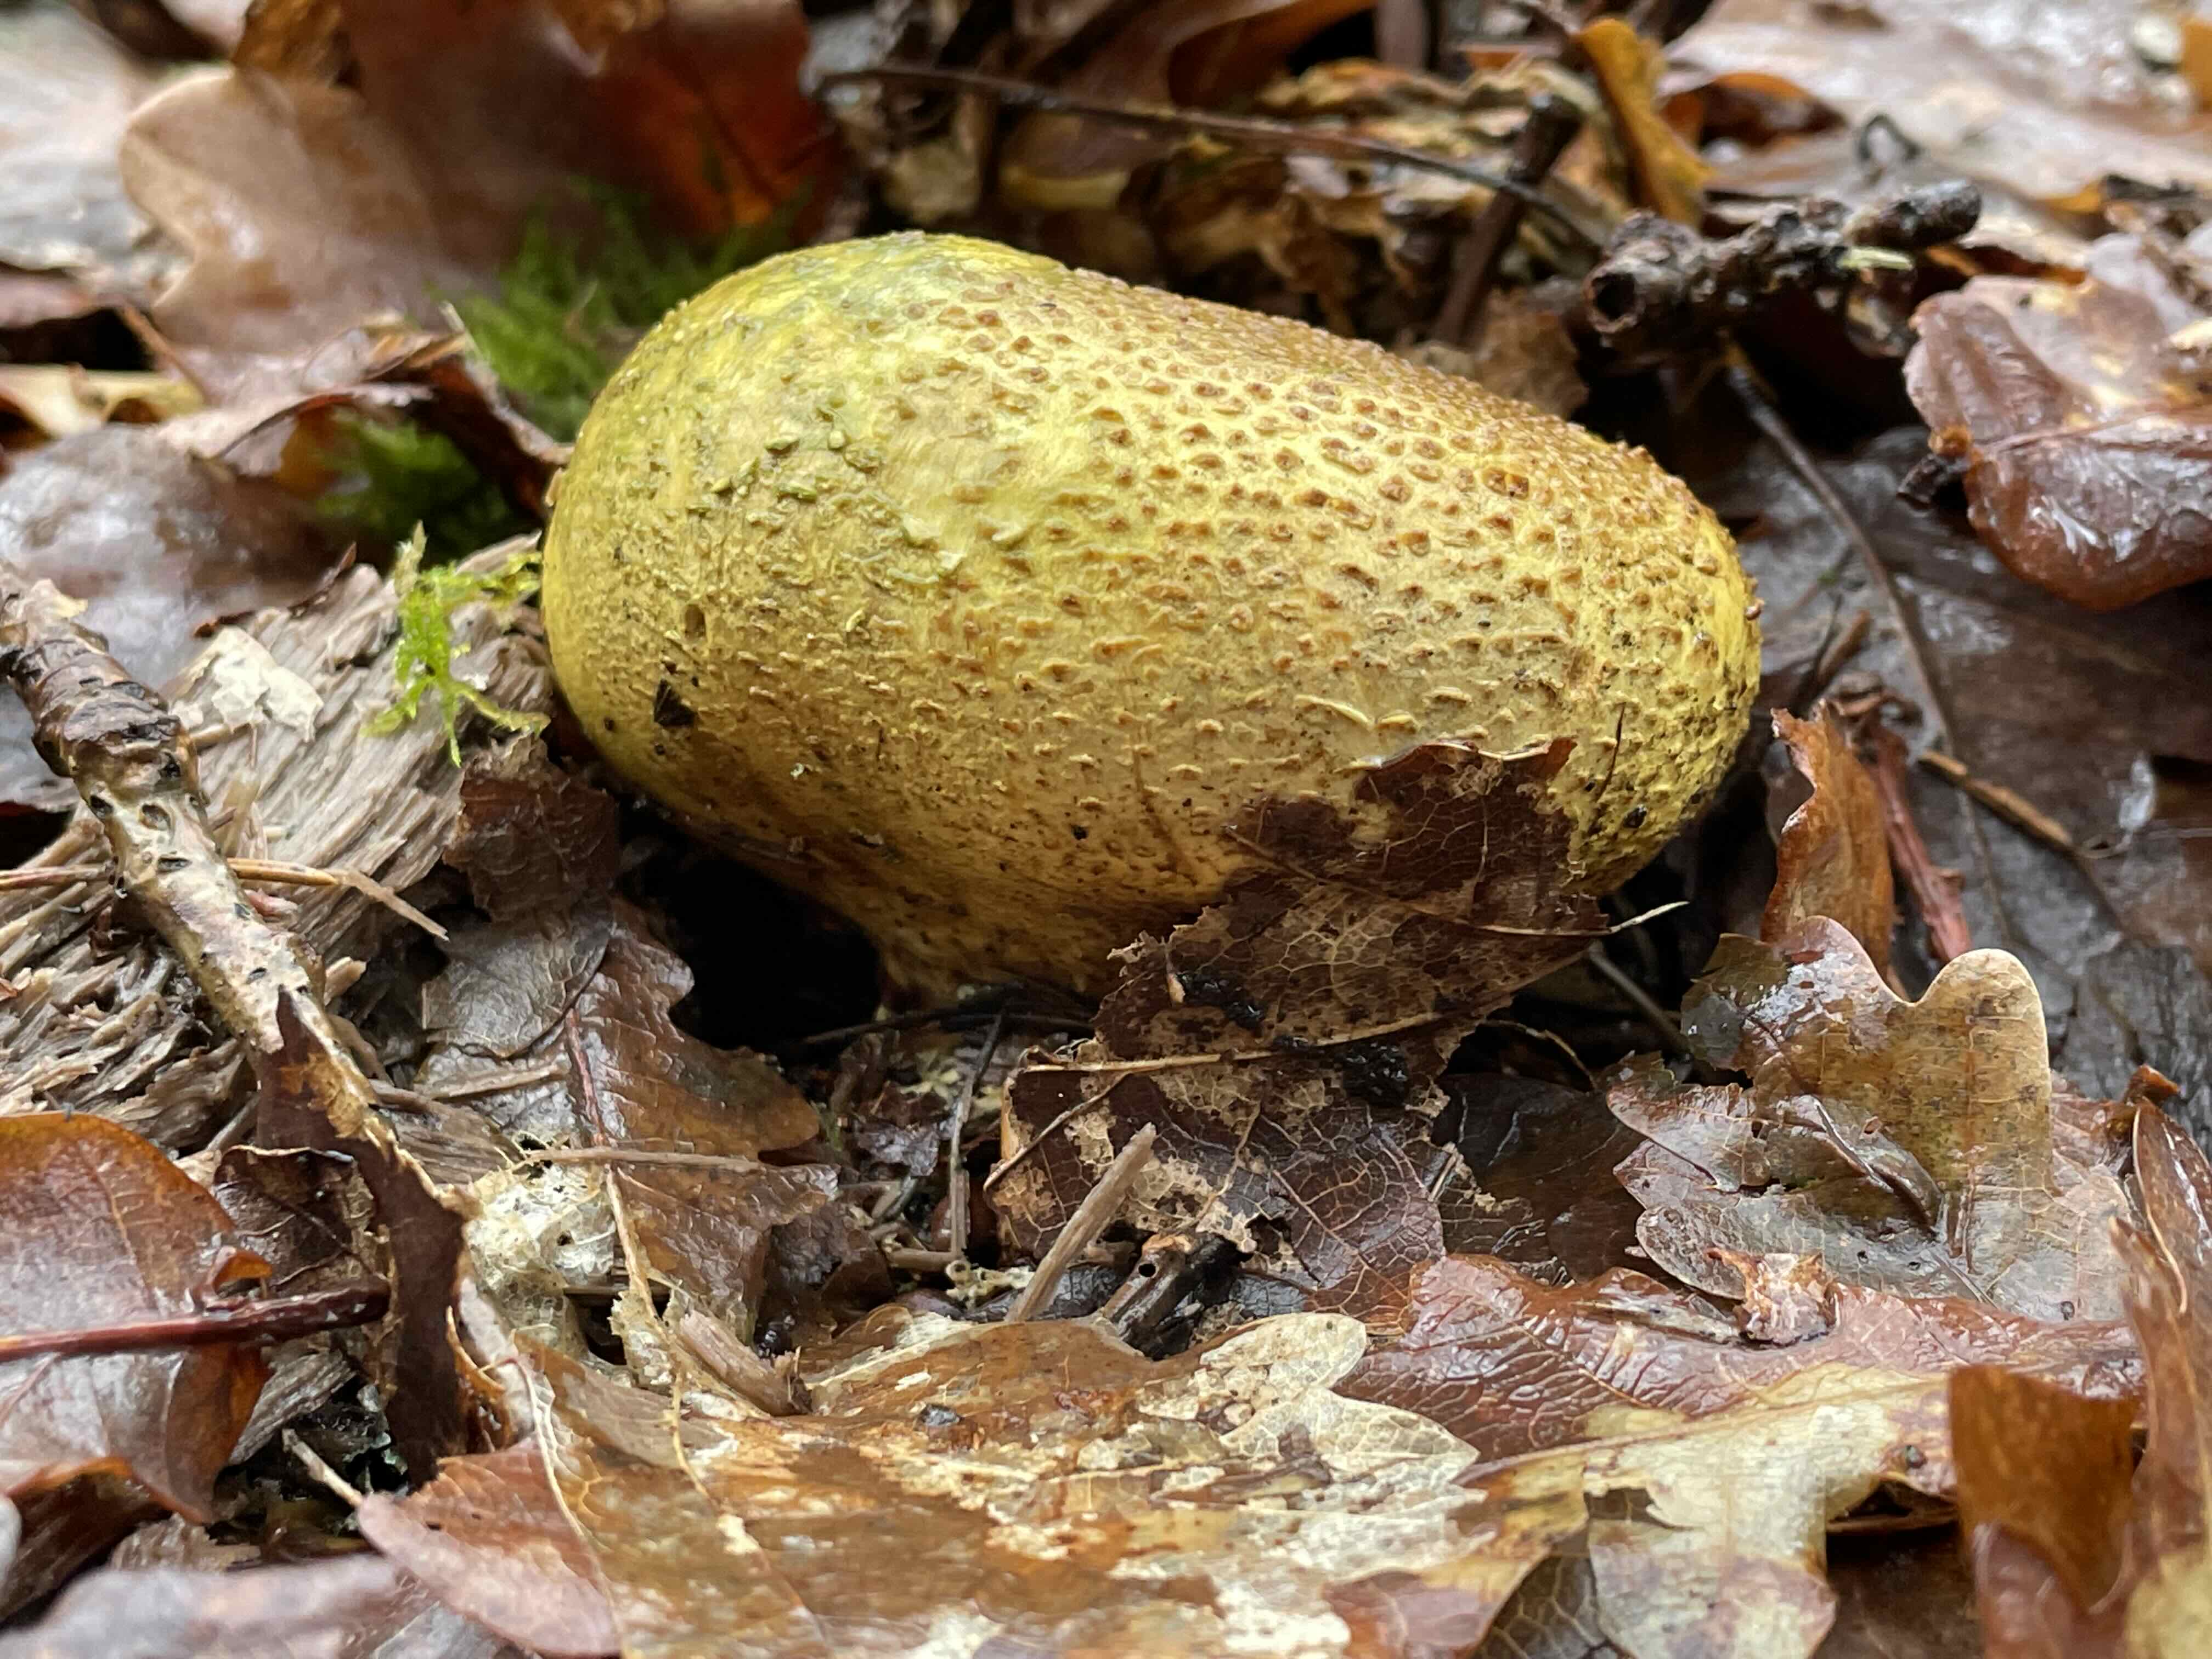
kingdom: Fungi
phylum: Basidiomycota
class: Agaricomycetes
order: Boletales
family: Sclerodermataceae
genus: Scleroderma
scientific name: Scleroderma citrinum
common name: almindelig bruskbold
